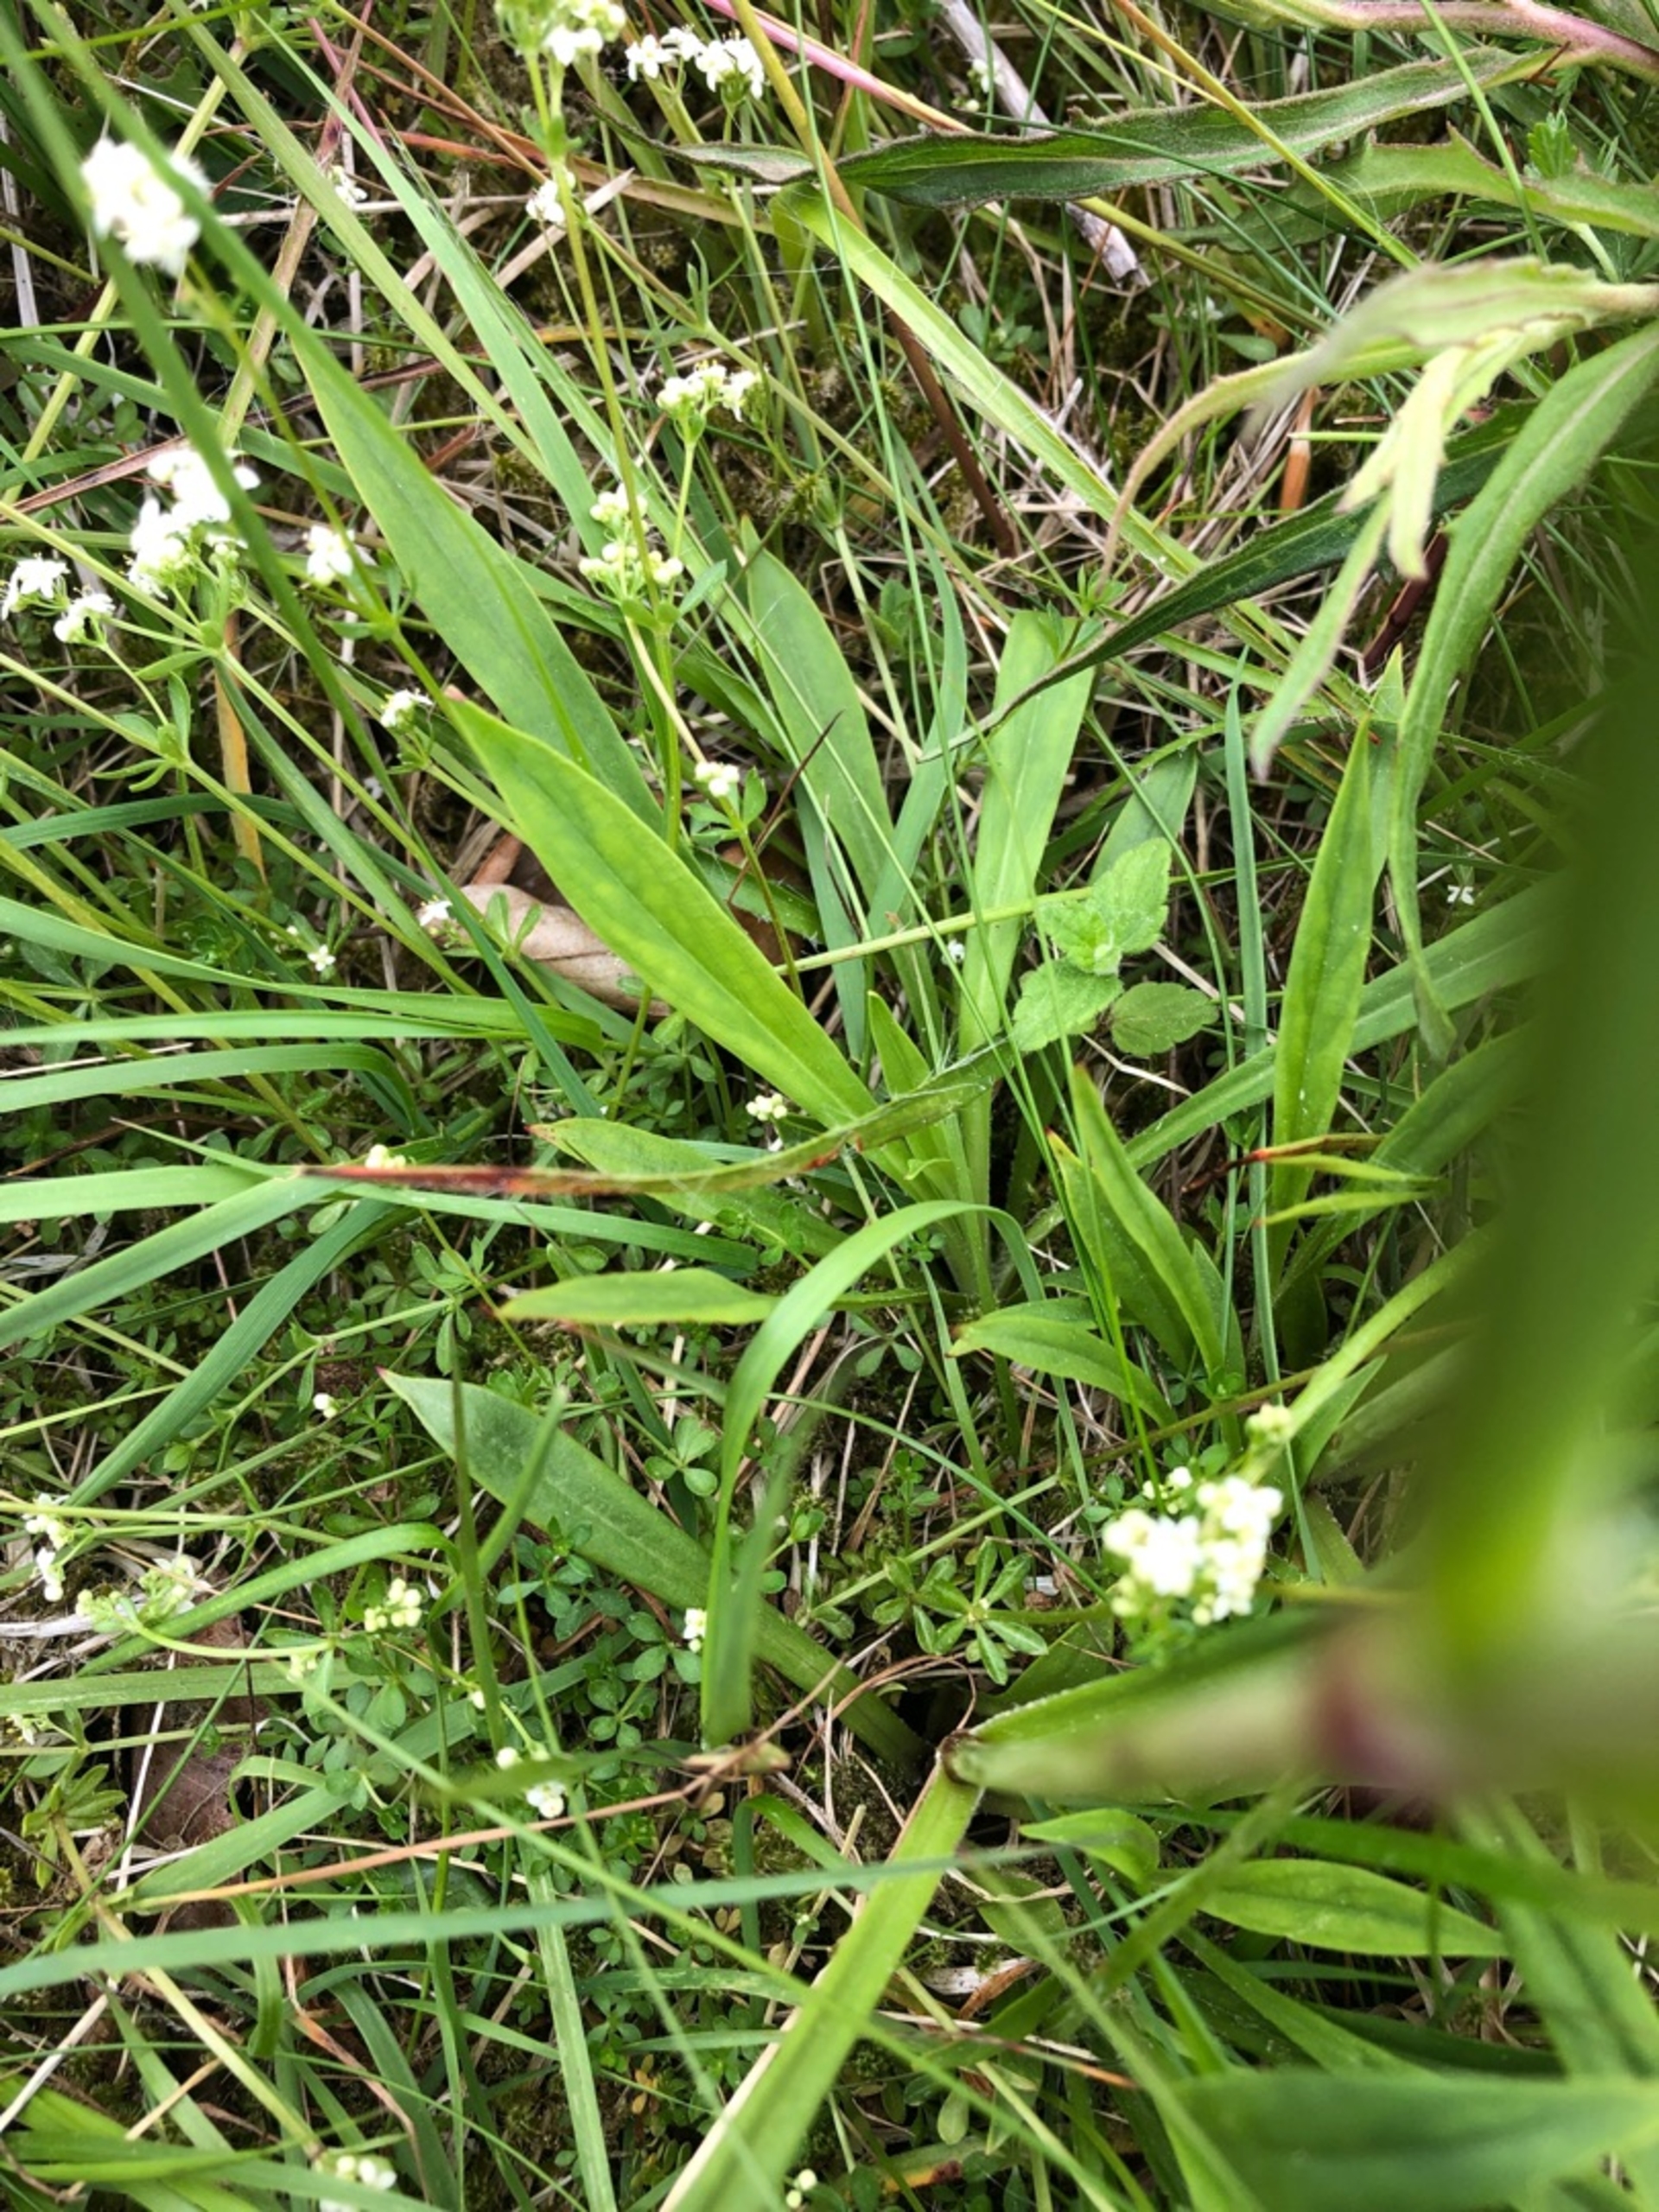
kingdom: Plantae
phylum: Tracheophyta
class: Magnoliopsida
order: Caryophyllales
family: Caryophyllaceae
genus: Viscaria
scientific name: Viscaria vulgaris
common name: Tjærenellike
